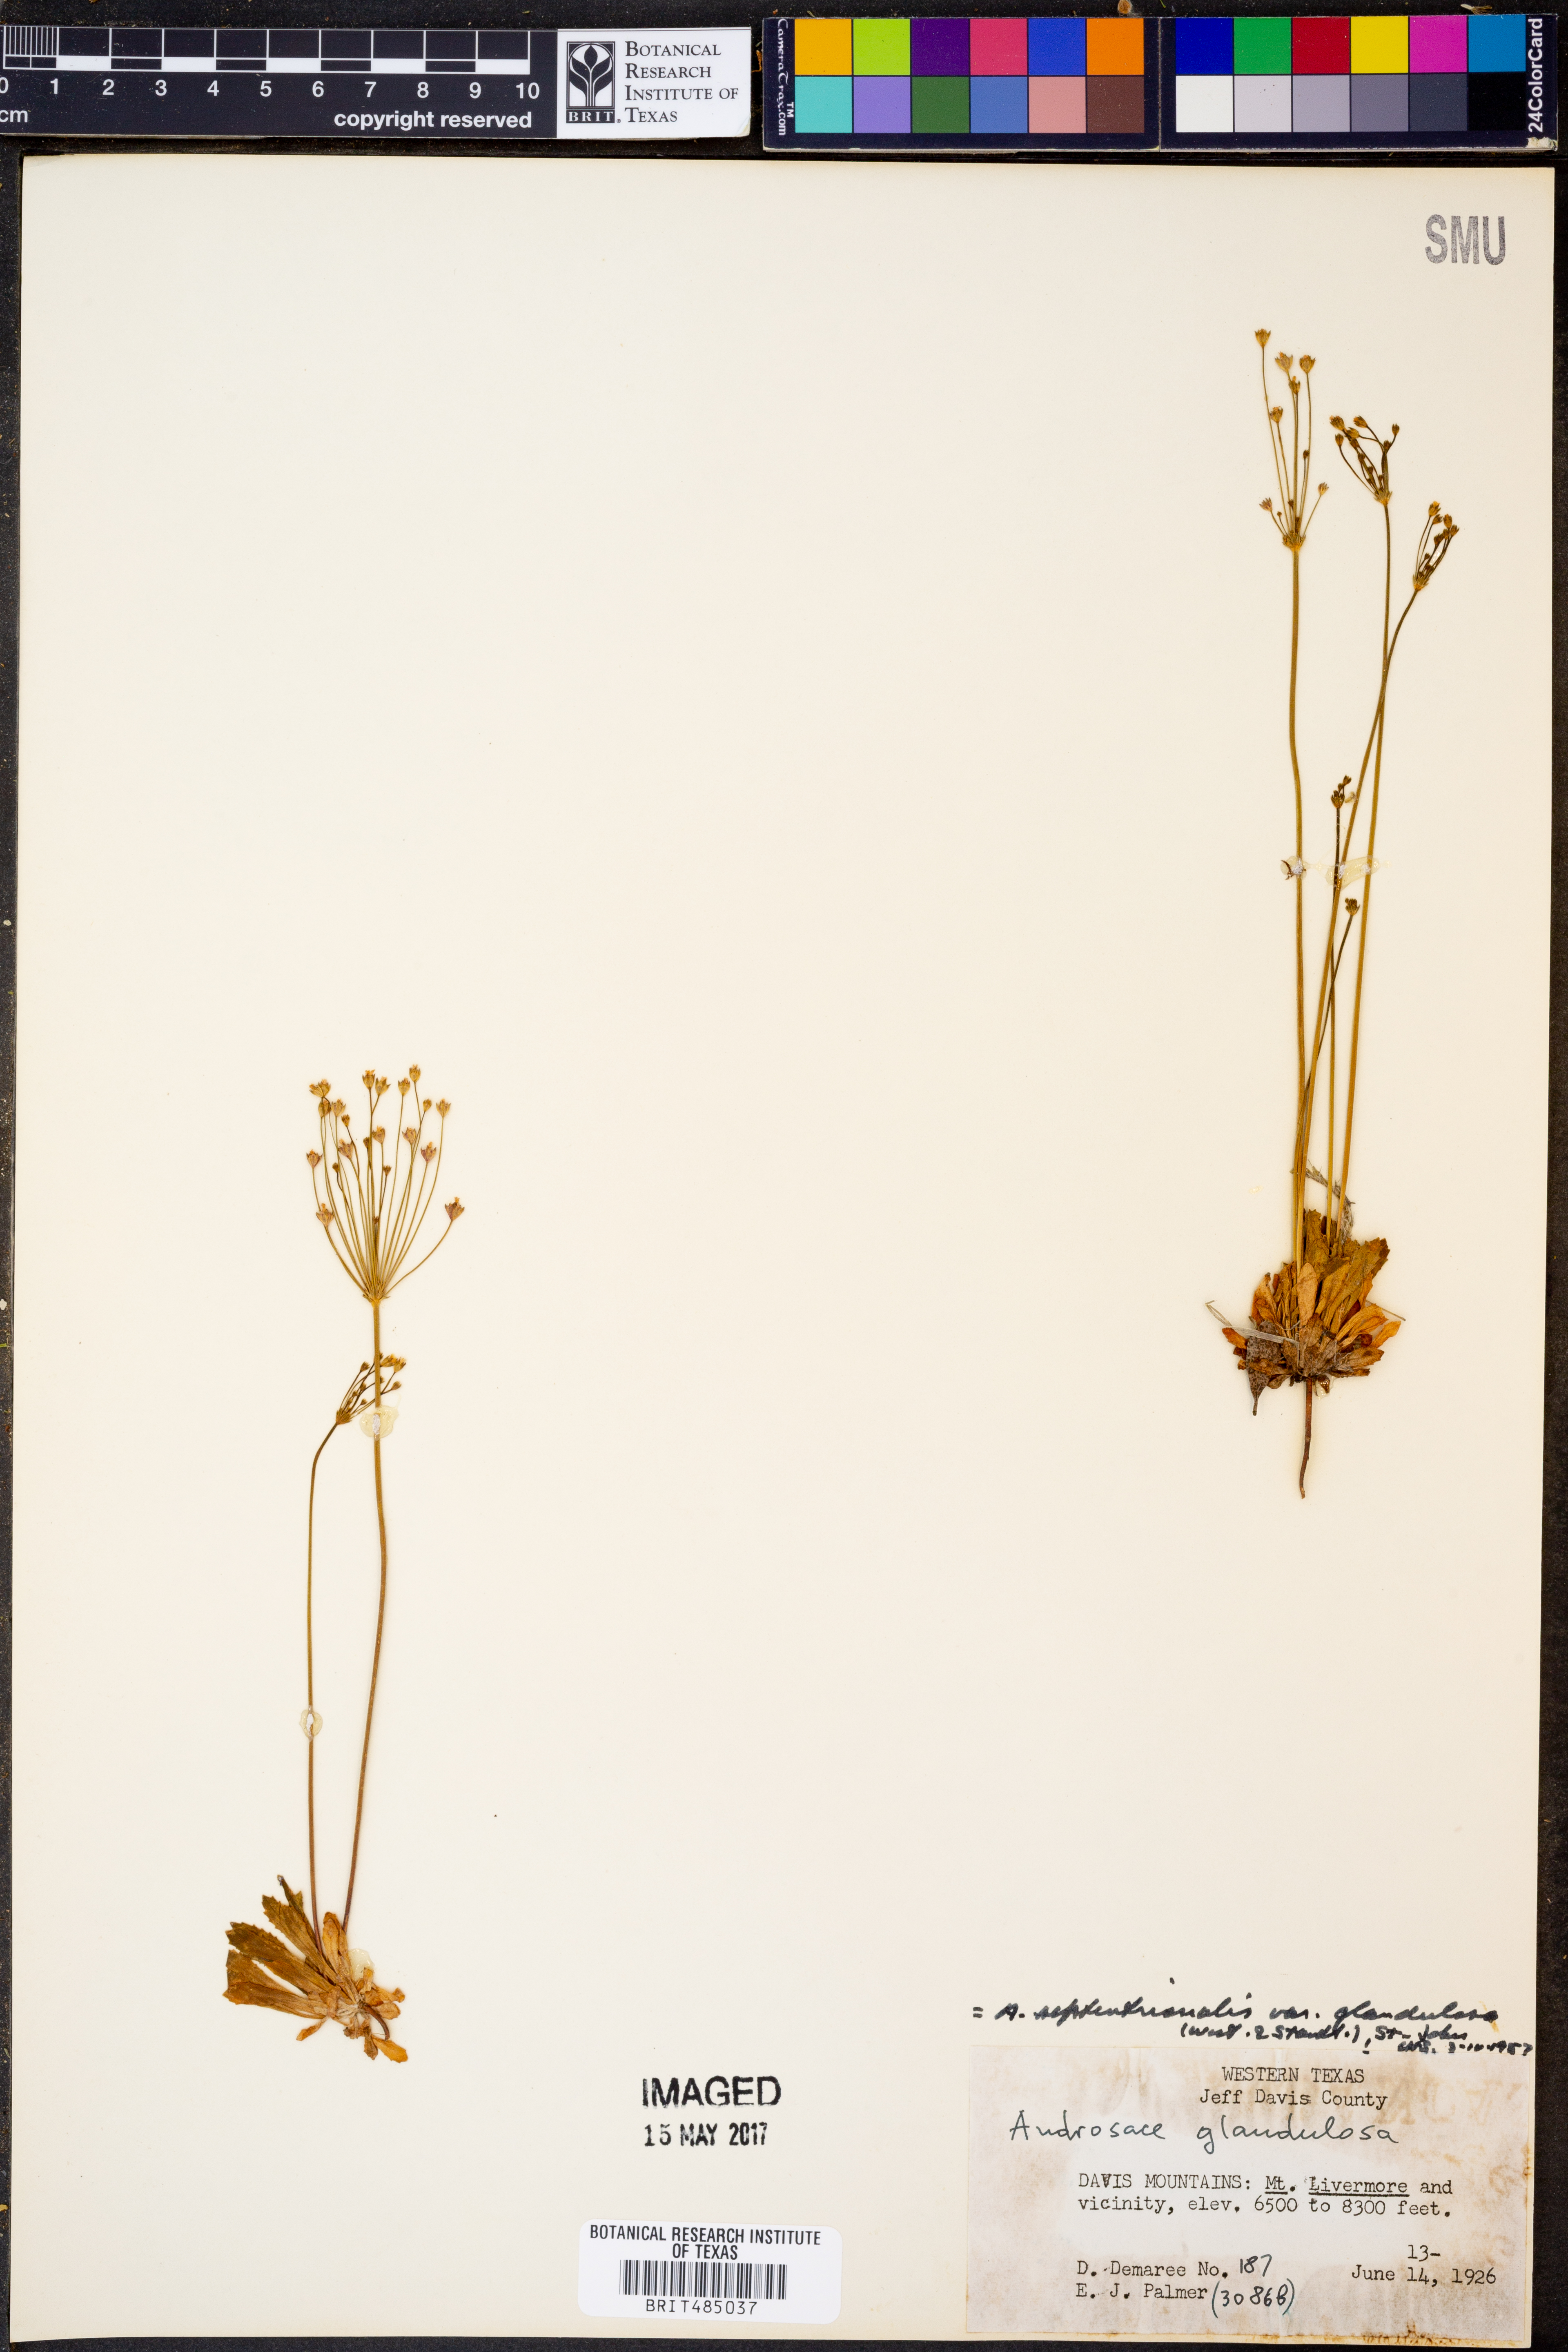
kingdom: Plantae
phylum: Tracheophyta
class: Magnoliopsida
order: Ericales
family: Primulaceae
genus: Androsace
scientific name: Androsace septentrionalis
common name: Hairy northern fairy-candelabra
